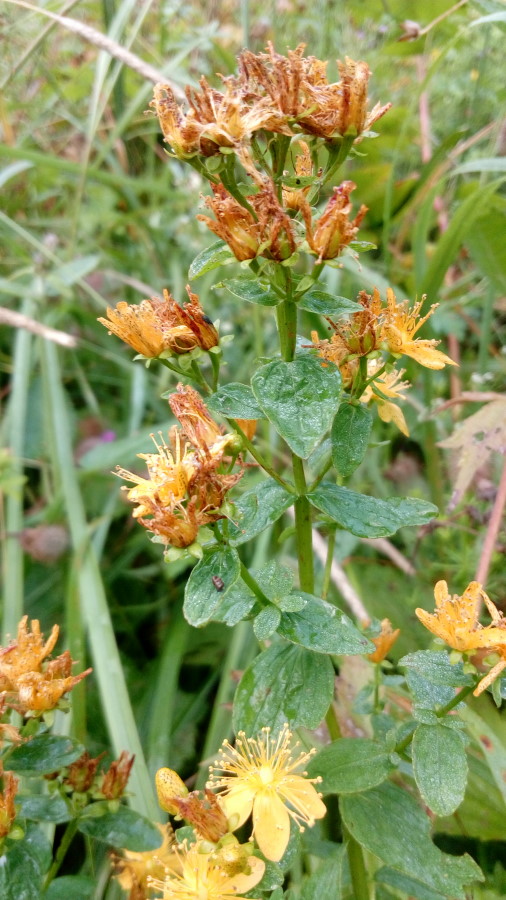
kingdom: Plantae
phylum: Tracheophyta
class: Magnoliopsida
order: Malpighiales
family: Hypericaceae
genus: Hypericum
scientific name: Hypericum perforatum
